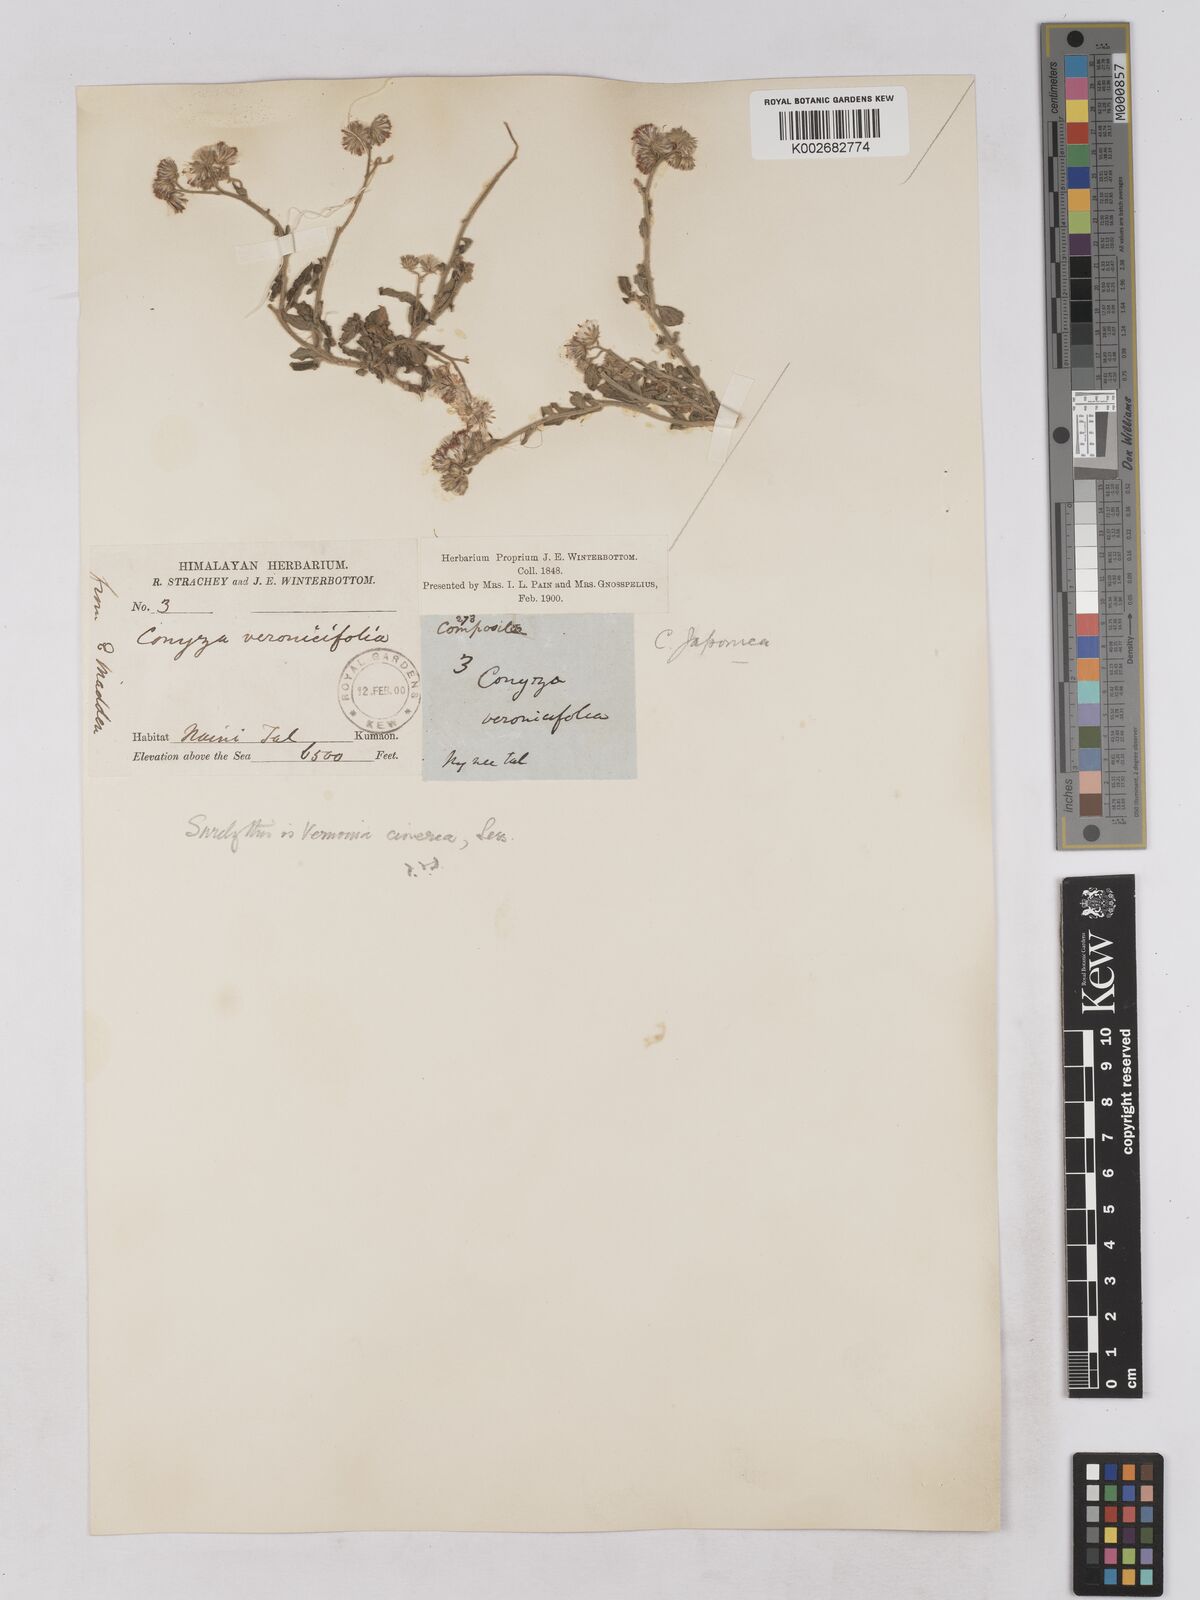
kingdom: Plantae
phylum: Tracheophyta
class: Magnoliopsida
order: Asterales
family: Asteraceae
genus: Cyanthillium
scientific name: Cyanthillium cinereum
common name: Little ironweed
